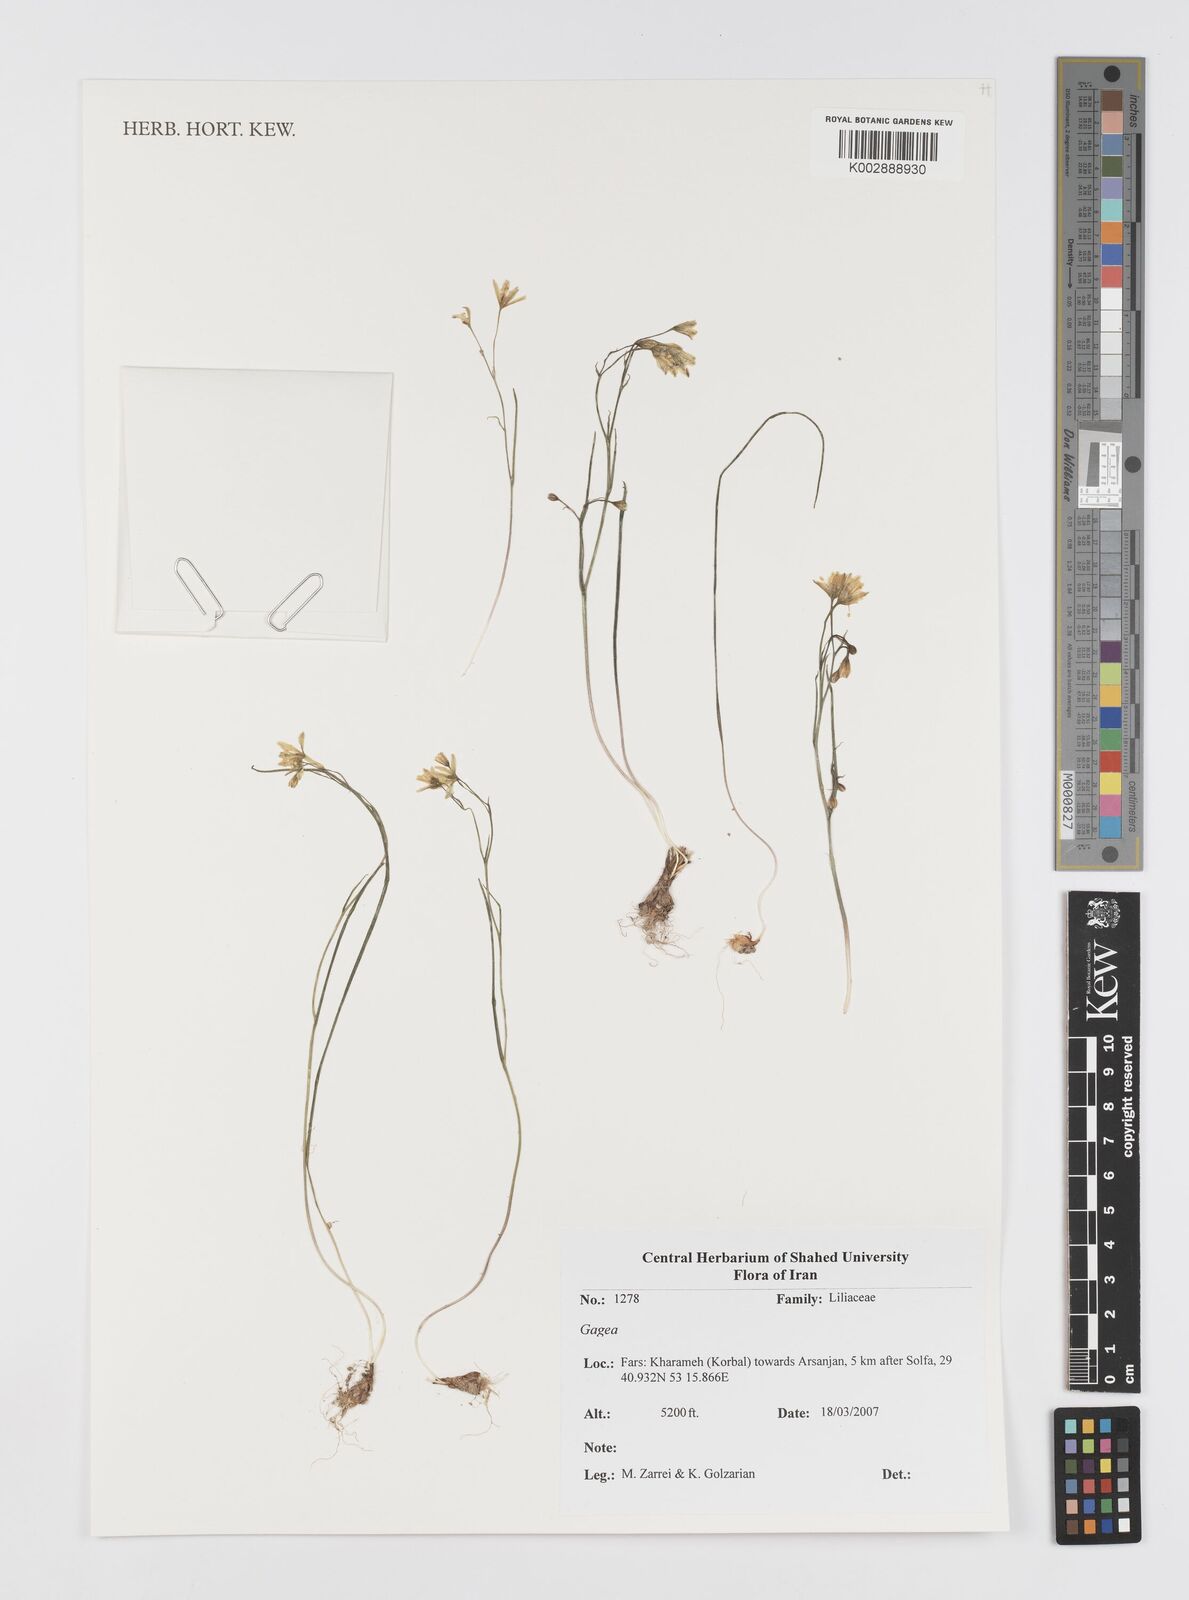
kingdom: Plantae
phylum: Tracheophyta
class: Liliopsida
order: Liliales
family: Liliaceae
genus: Gagea
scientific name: Gagea
